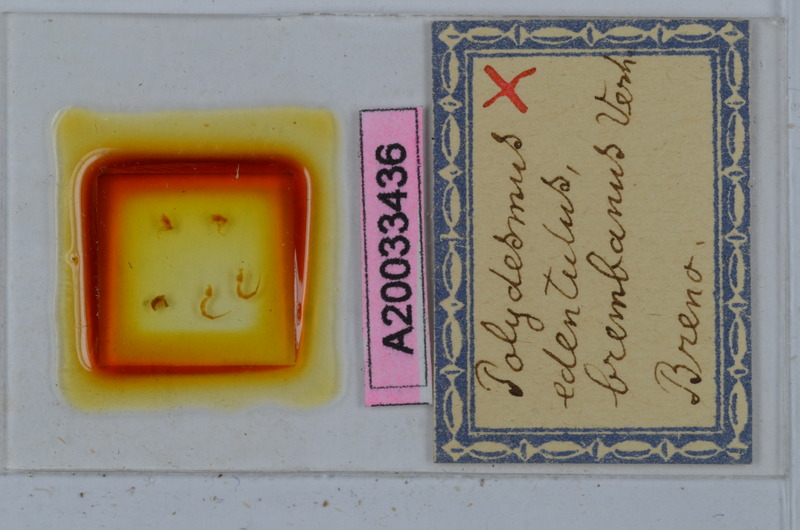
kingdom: Animalia
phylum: Arthropoda
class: Diplopoda
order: Polydesmida
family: Polydesmidae
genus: Polydesmus
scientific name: Polydesmus edentulus
